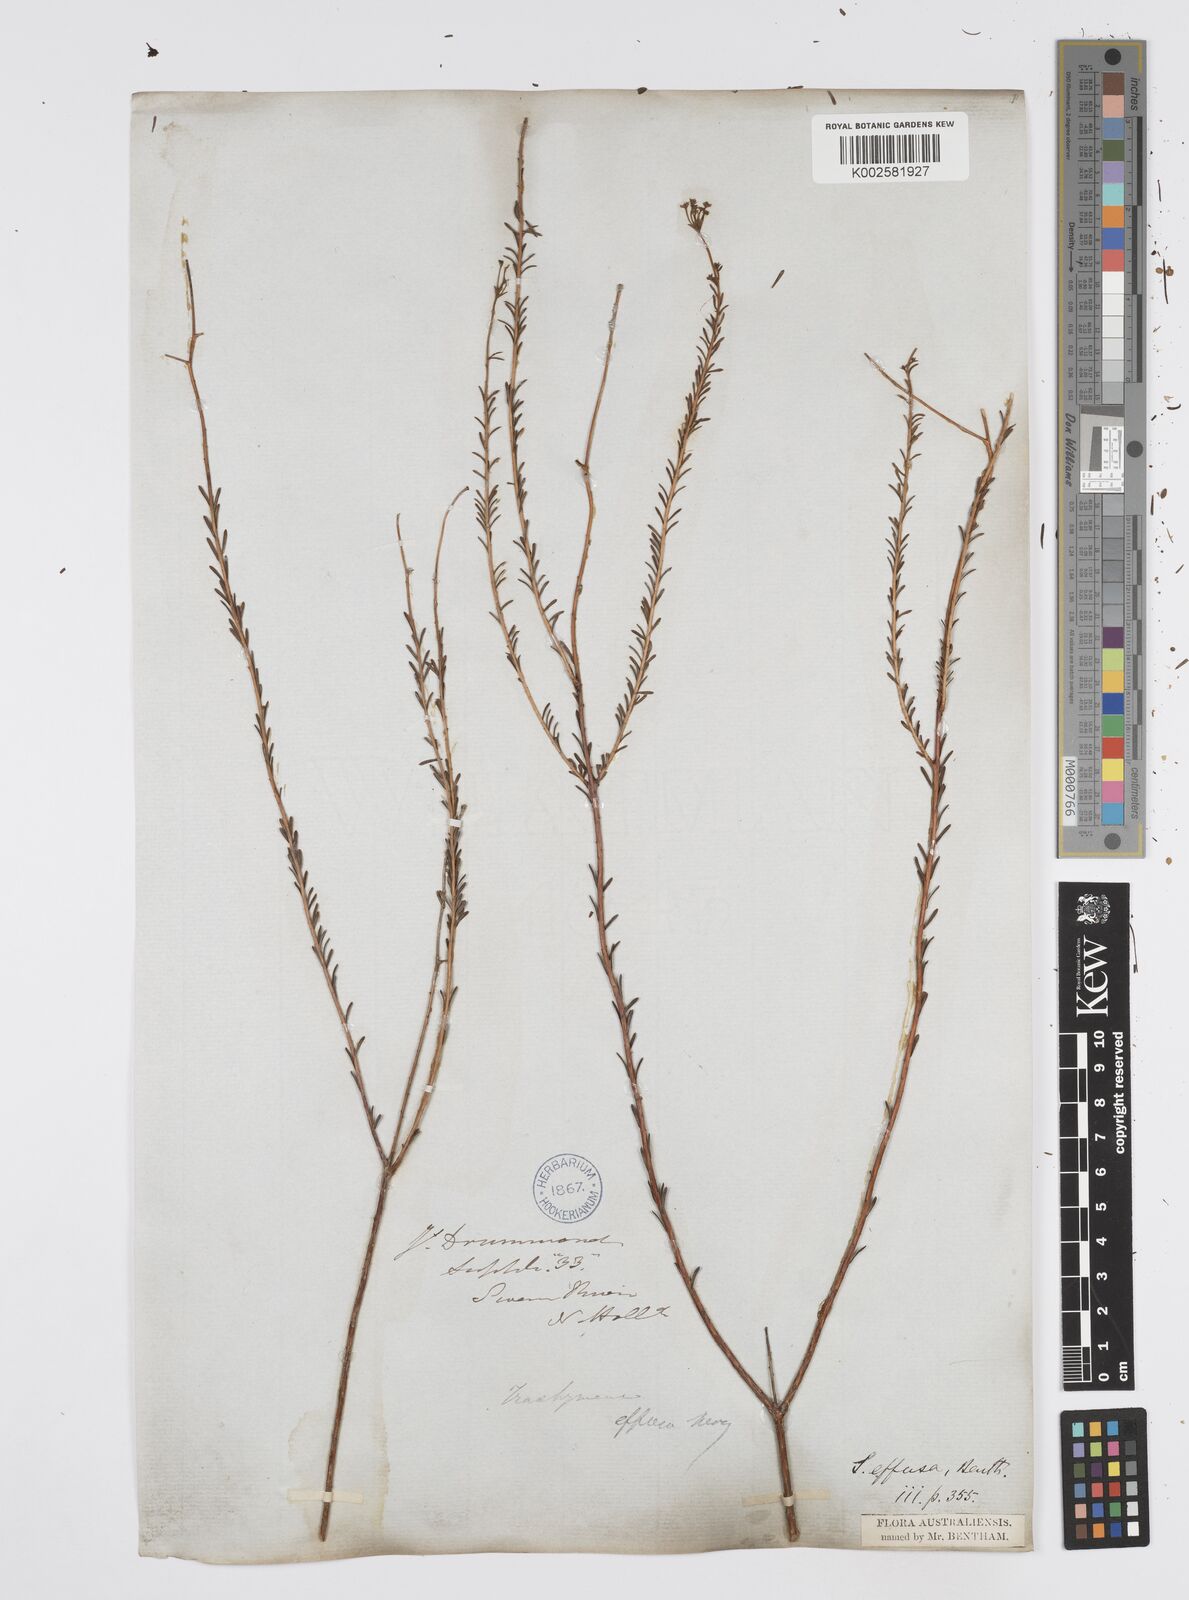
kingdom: Plantae
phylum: Tracheophyta
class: Magnoliopsida
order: Apiales
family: Apiaceae
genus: Platysace
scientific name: Platysace effusa
